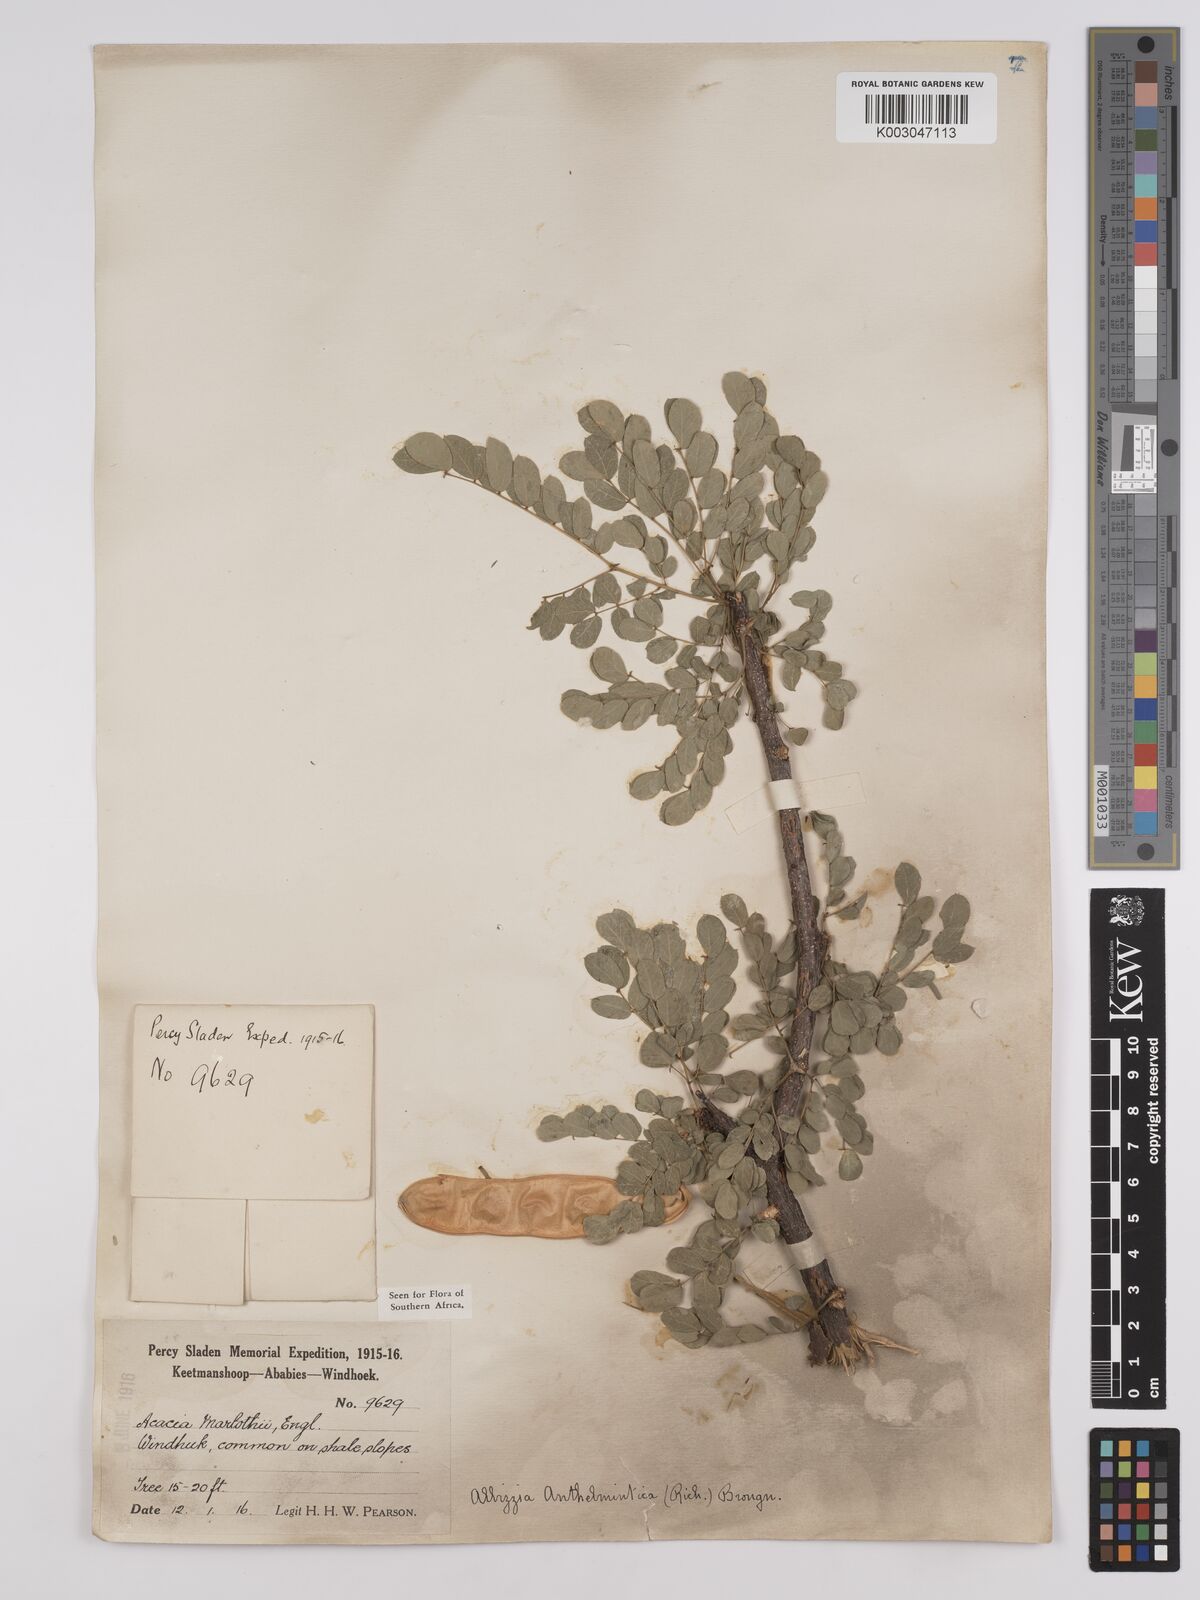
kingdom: Plantae
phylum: Tracheophyta
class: Magnoliopsida
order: Fabales
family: Fabaceae
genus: Albizia
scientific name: Albizia anthelmintica
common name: Worm-bark false-thorn
